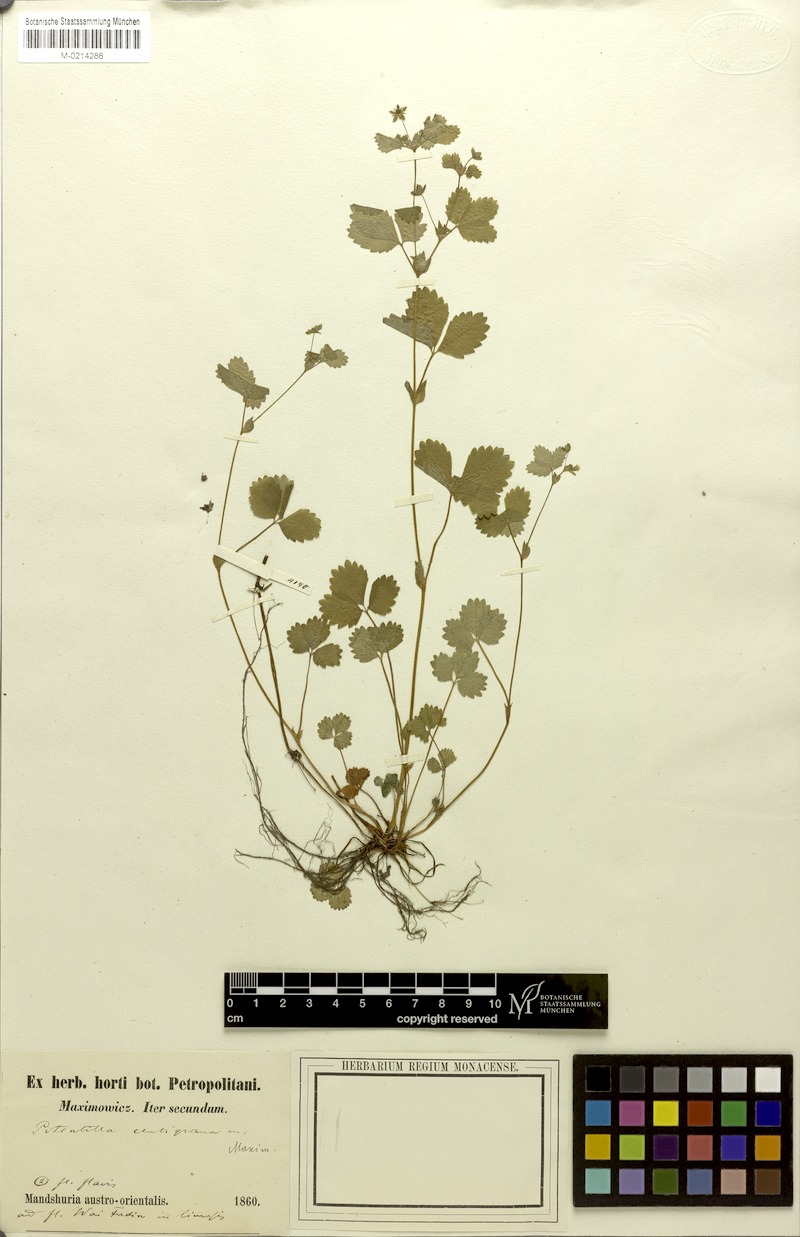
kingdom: Plantae
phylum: Tracheophyta
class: Magnoliopsida
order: Rosales
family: Rosaceae
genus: Potentilla
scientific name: Potentilla centigrana
